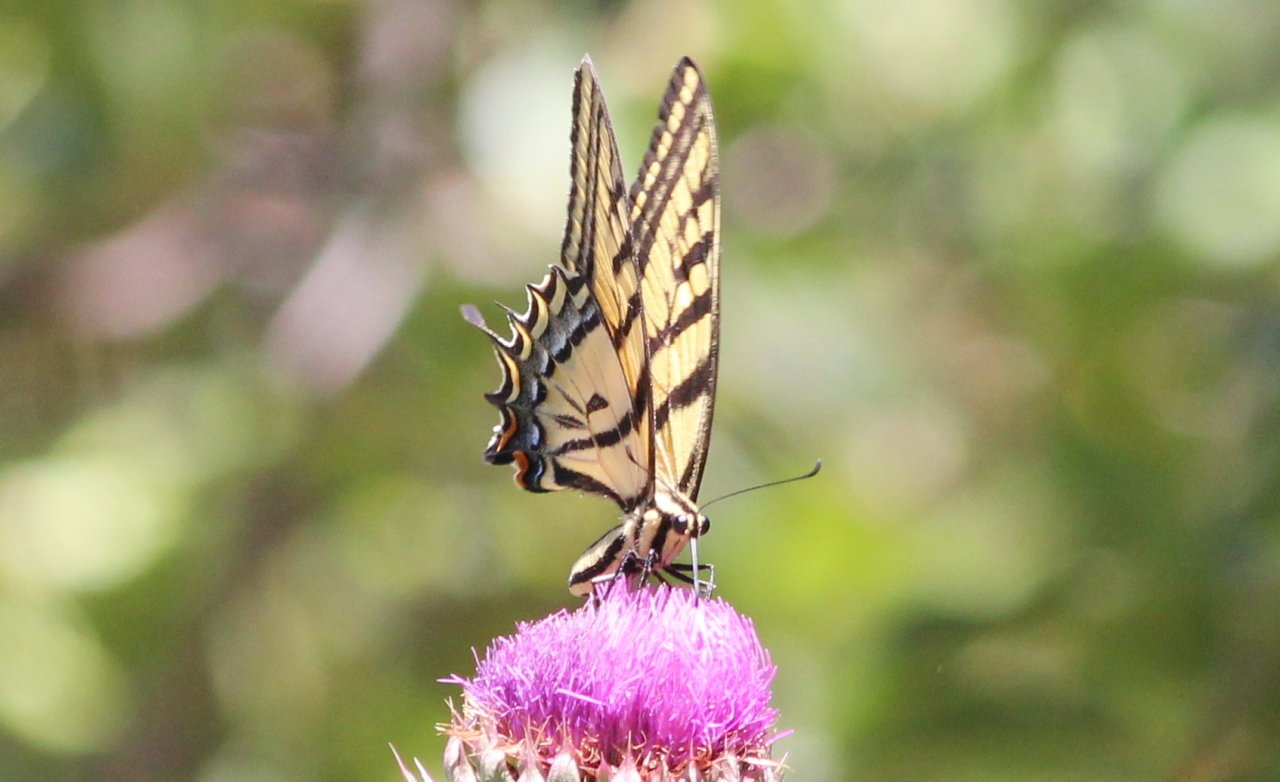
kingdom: Animalia
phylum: Arthropoda
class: Insecta
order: Lepidoptera
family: Papilionidae
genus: Papilio
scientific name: Papilio multicaudata
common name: Two-tailed Swallowtail
